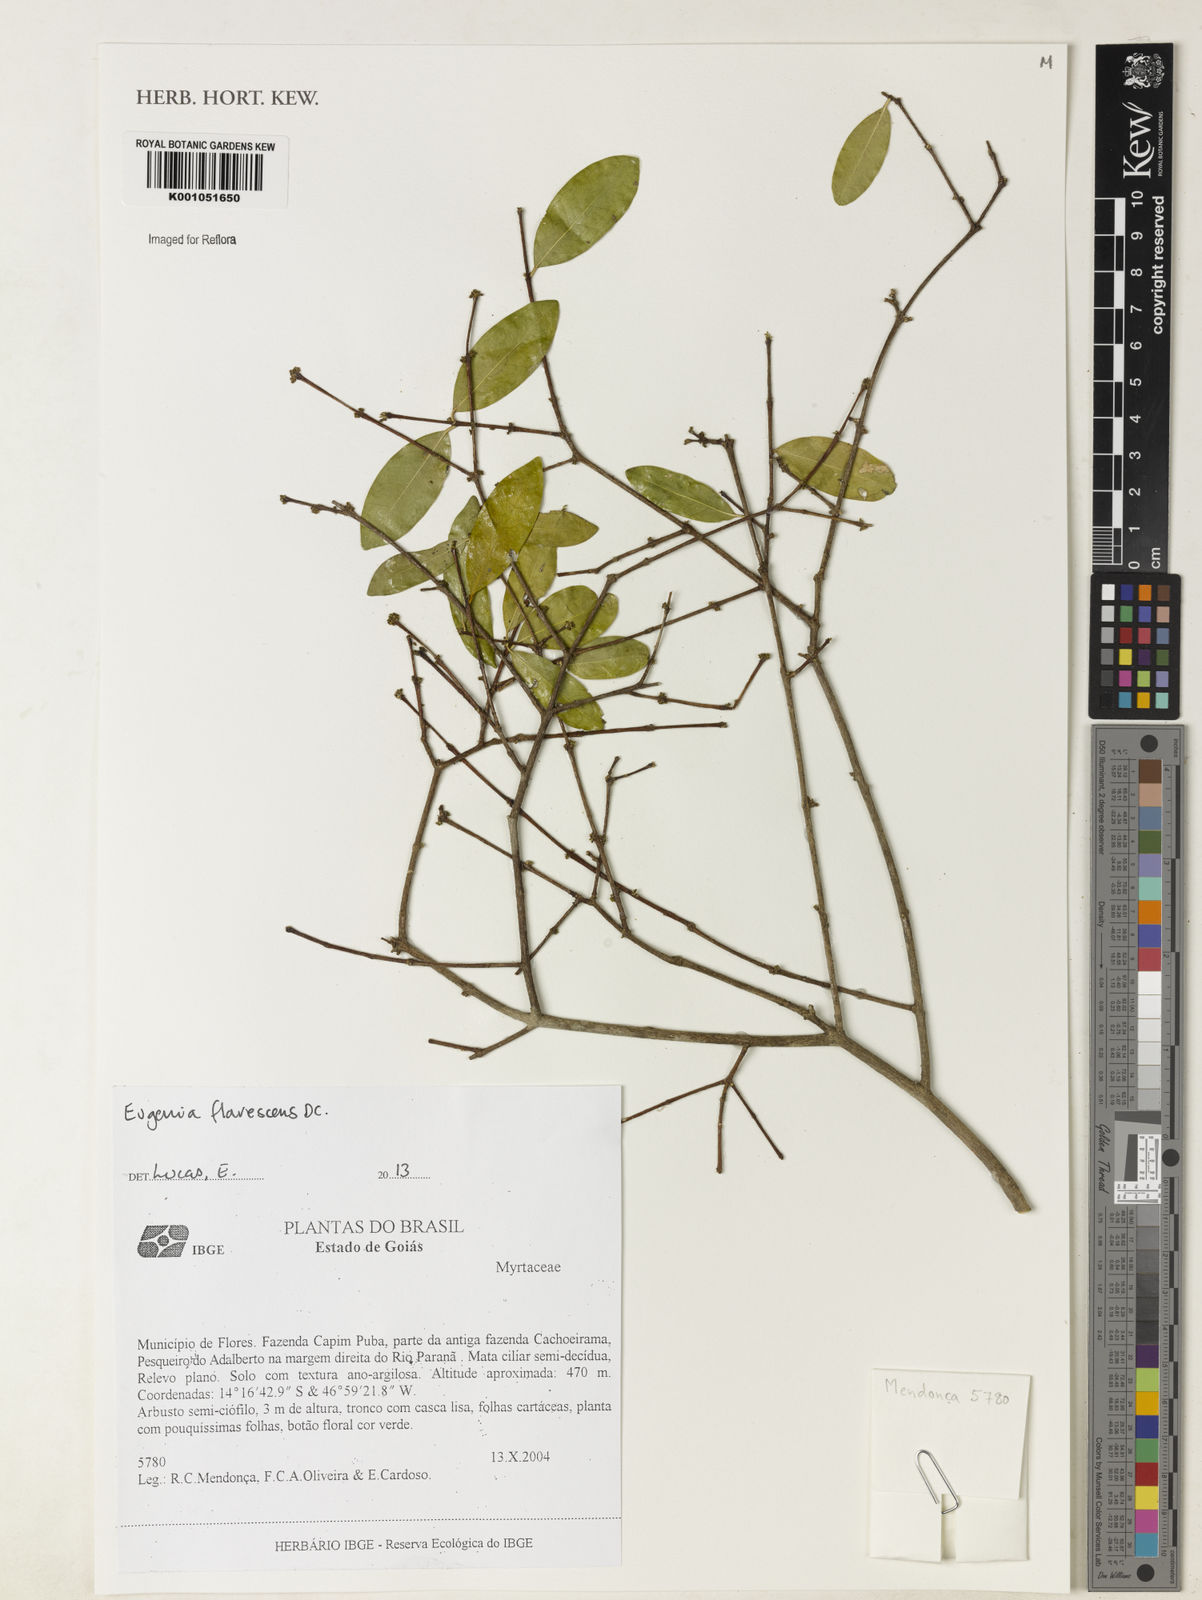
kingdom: Plantae
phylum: Tracheophyta
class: Magnoliopsida
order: Myrtales
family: Myrtaceae
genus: Eugenia
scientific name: Eugenia flavescens
